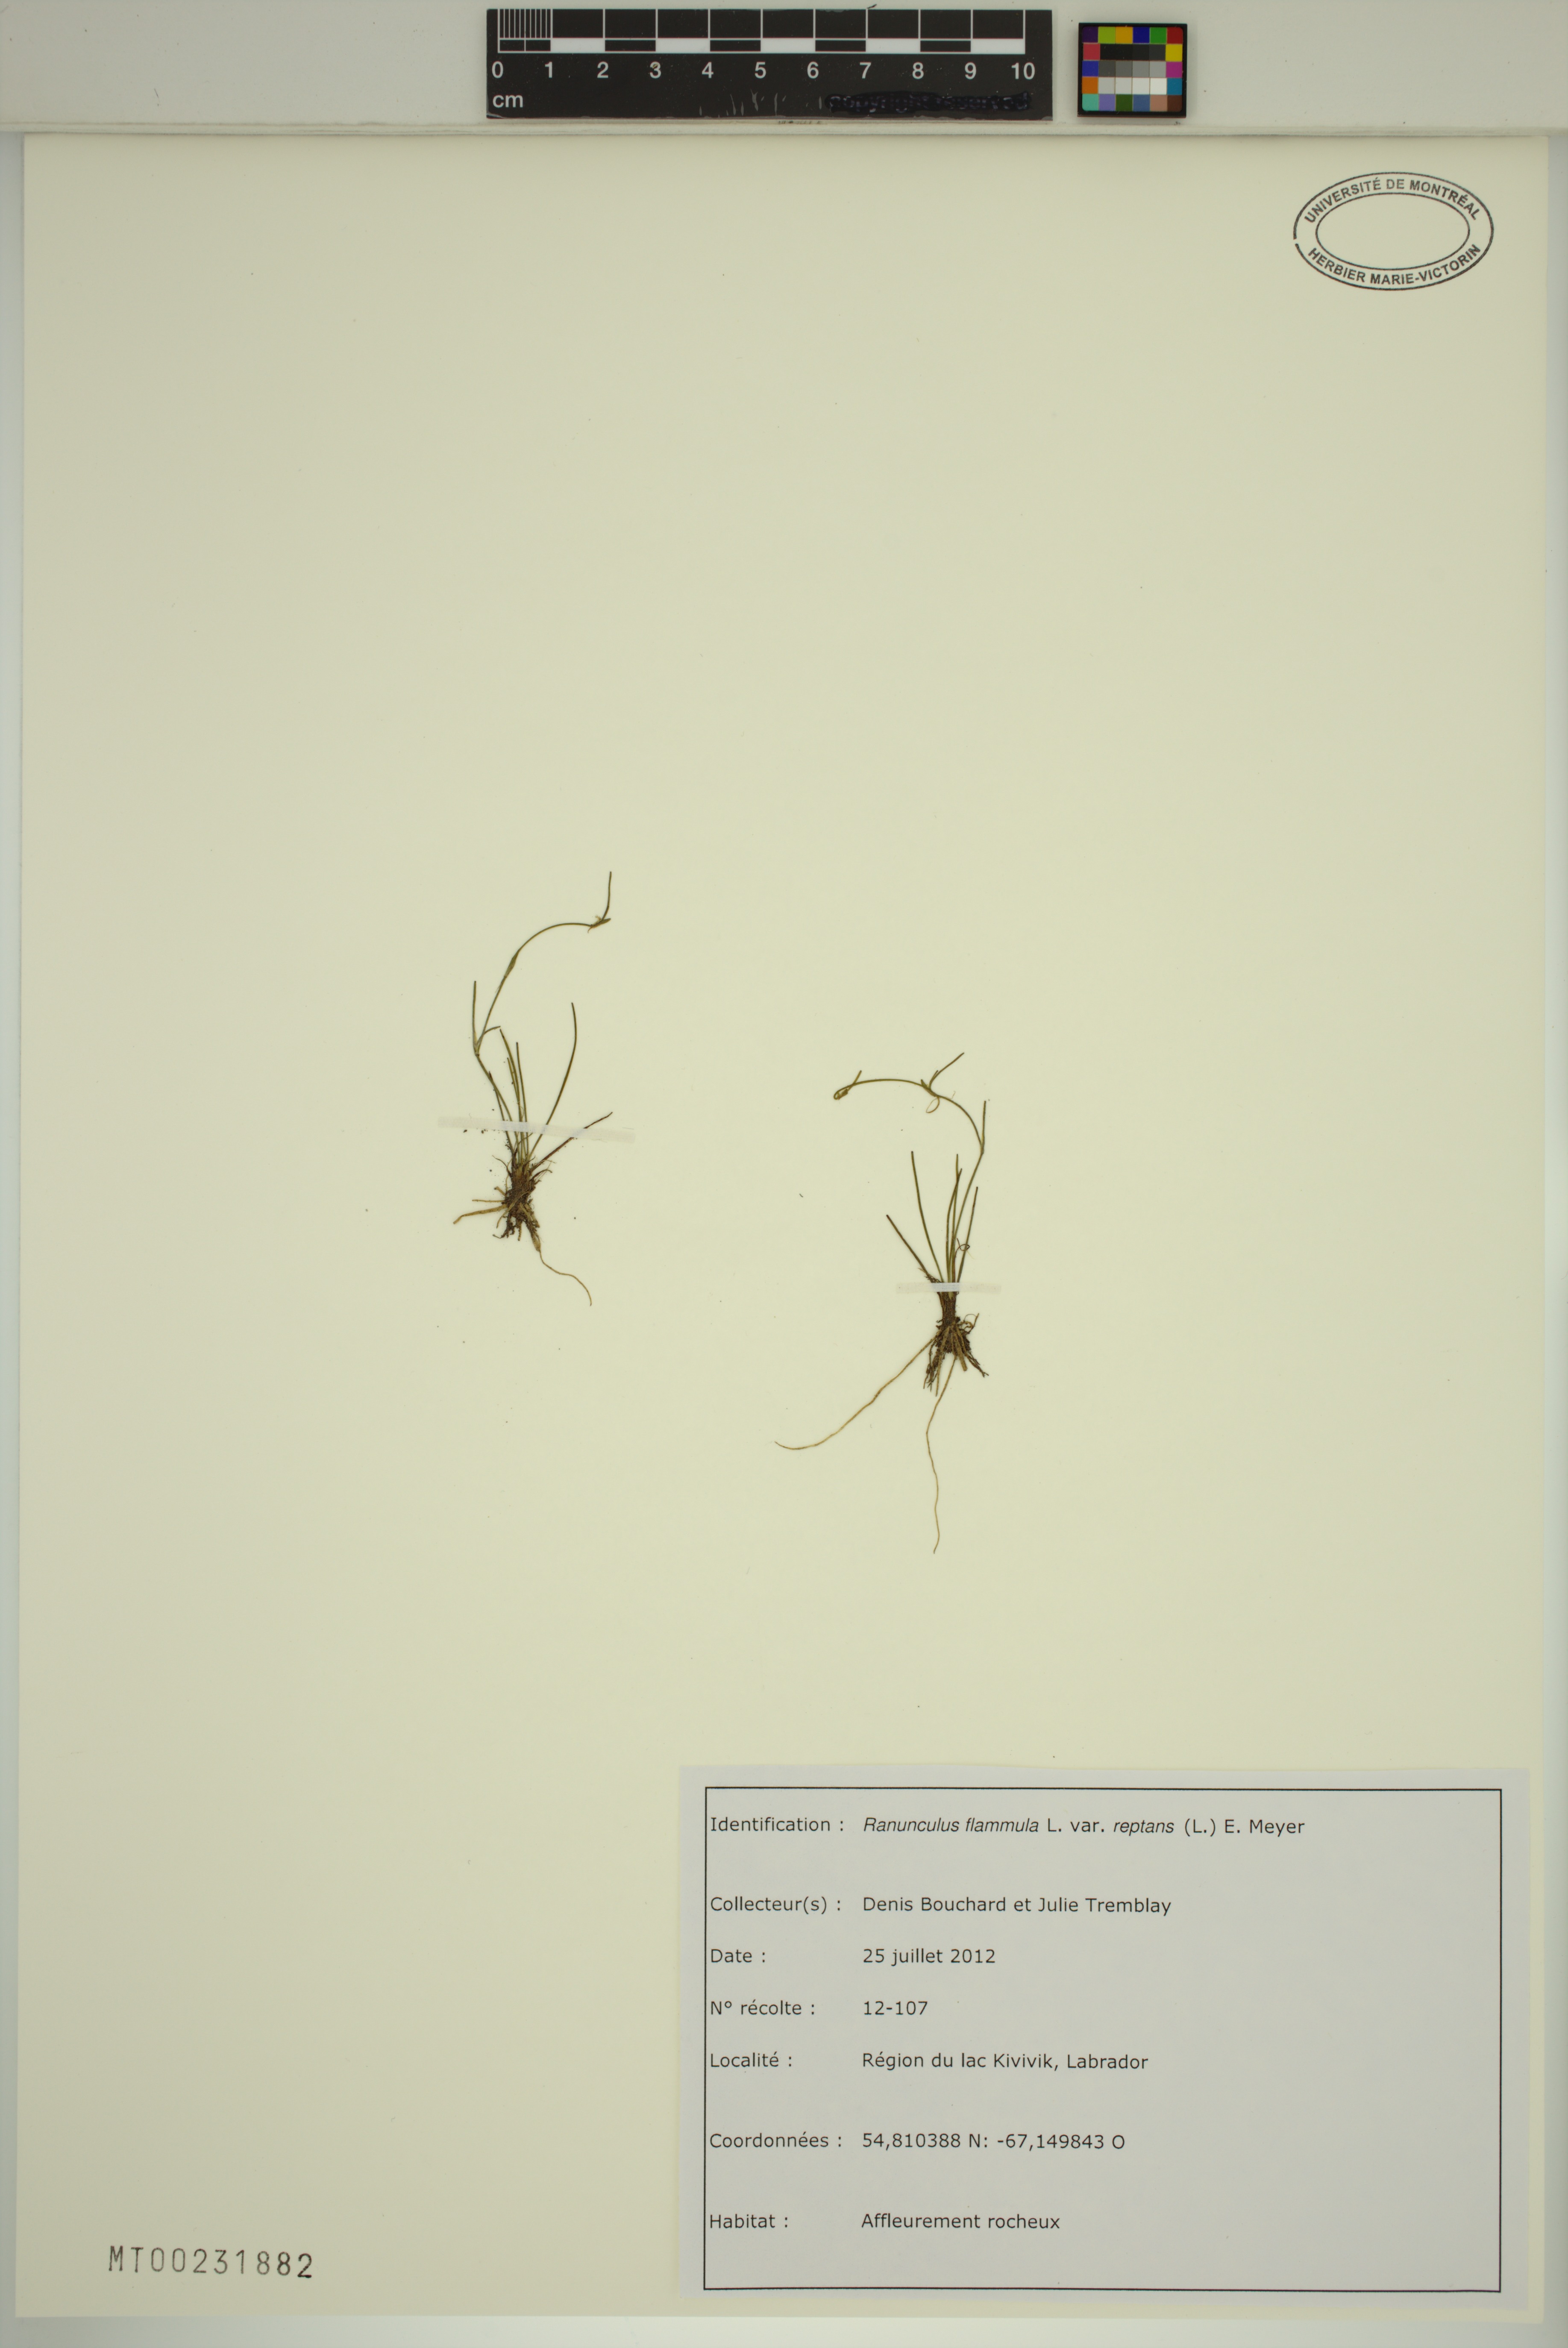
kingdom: Plantae
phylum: Tracheophyta
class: Magnoliopsida
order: Ranunculales
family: Ranunculaceae
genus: Ranunculus
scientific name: Ranunculus reptans
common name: Creeping spearwort
